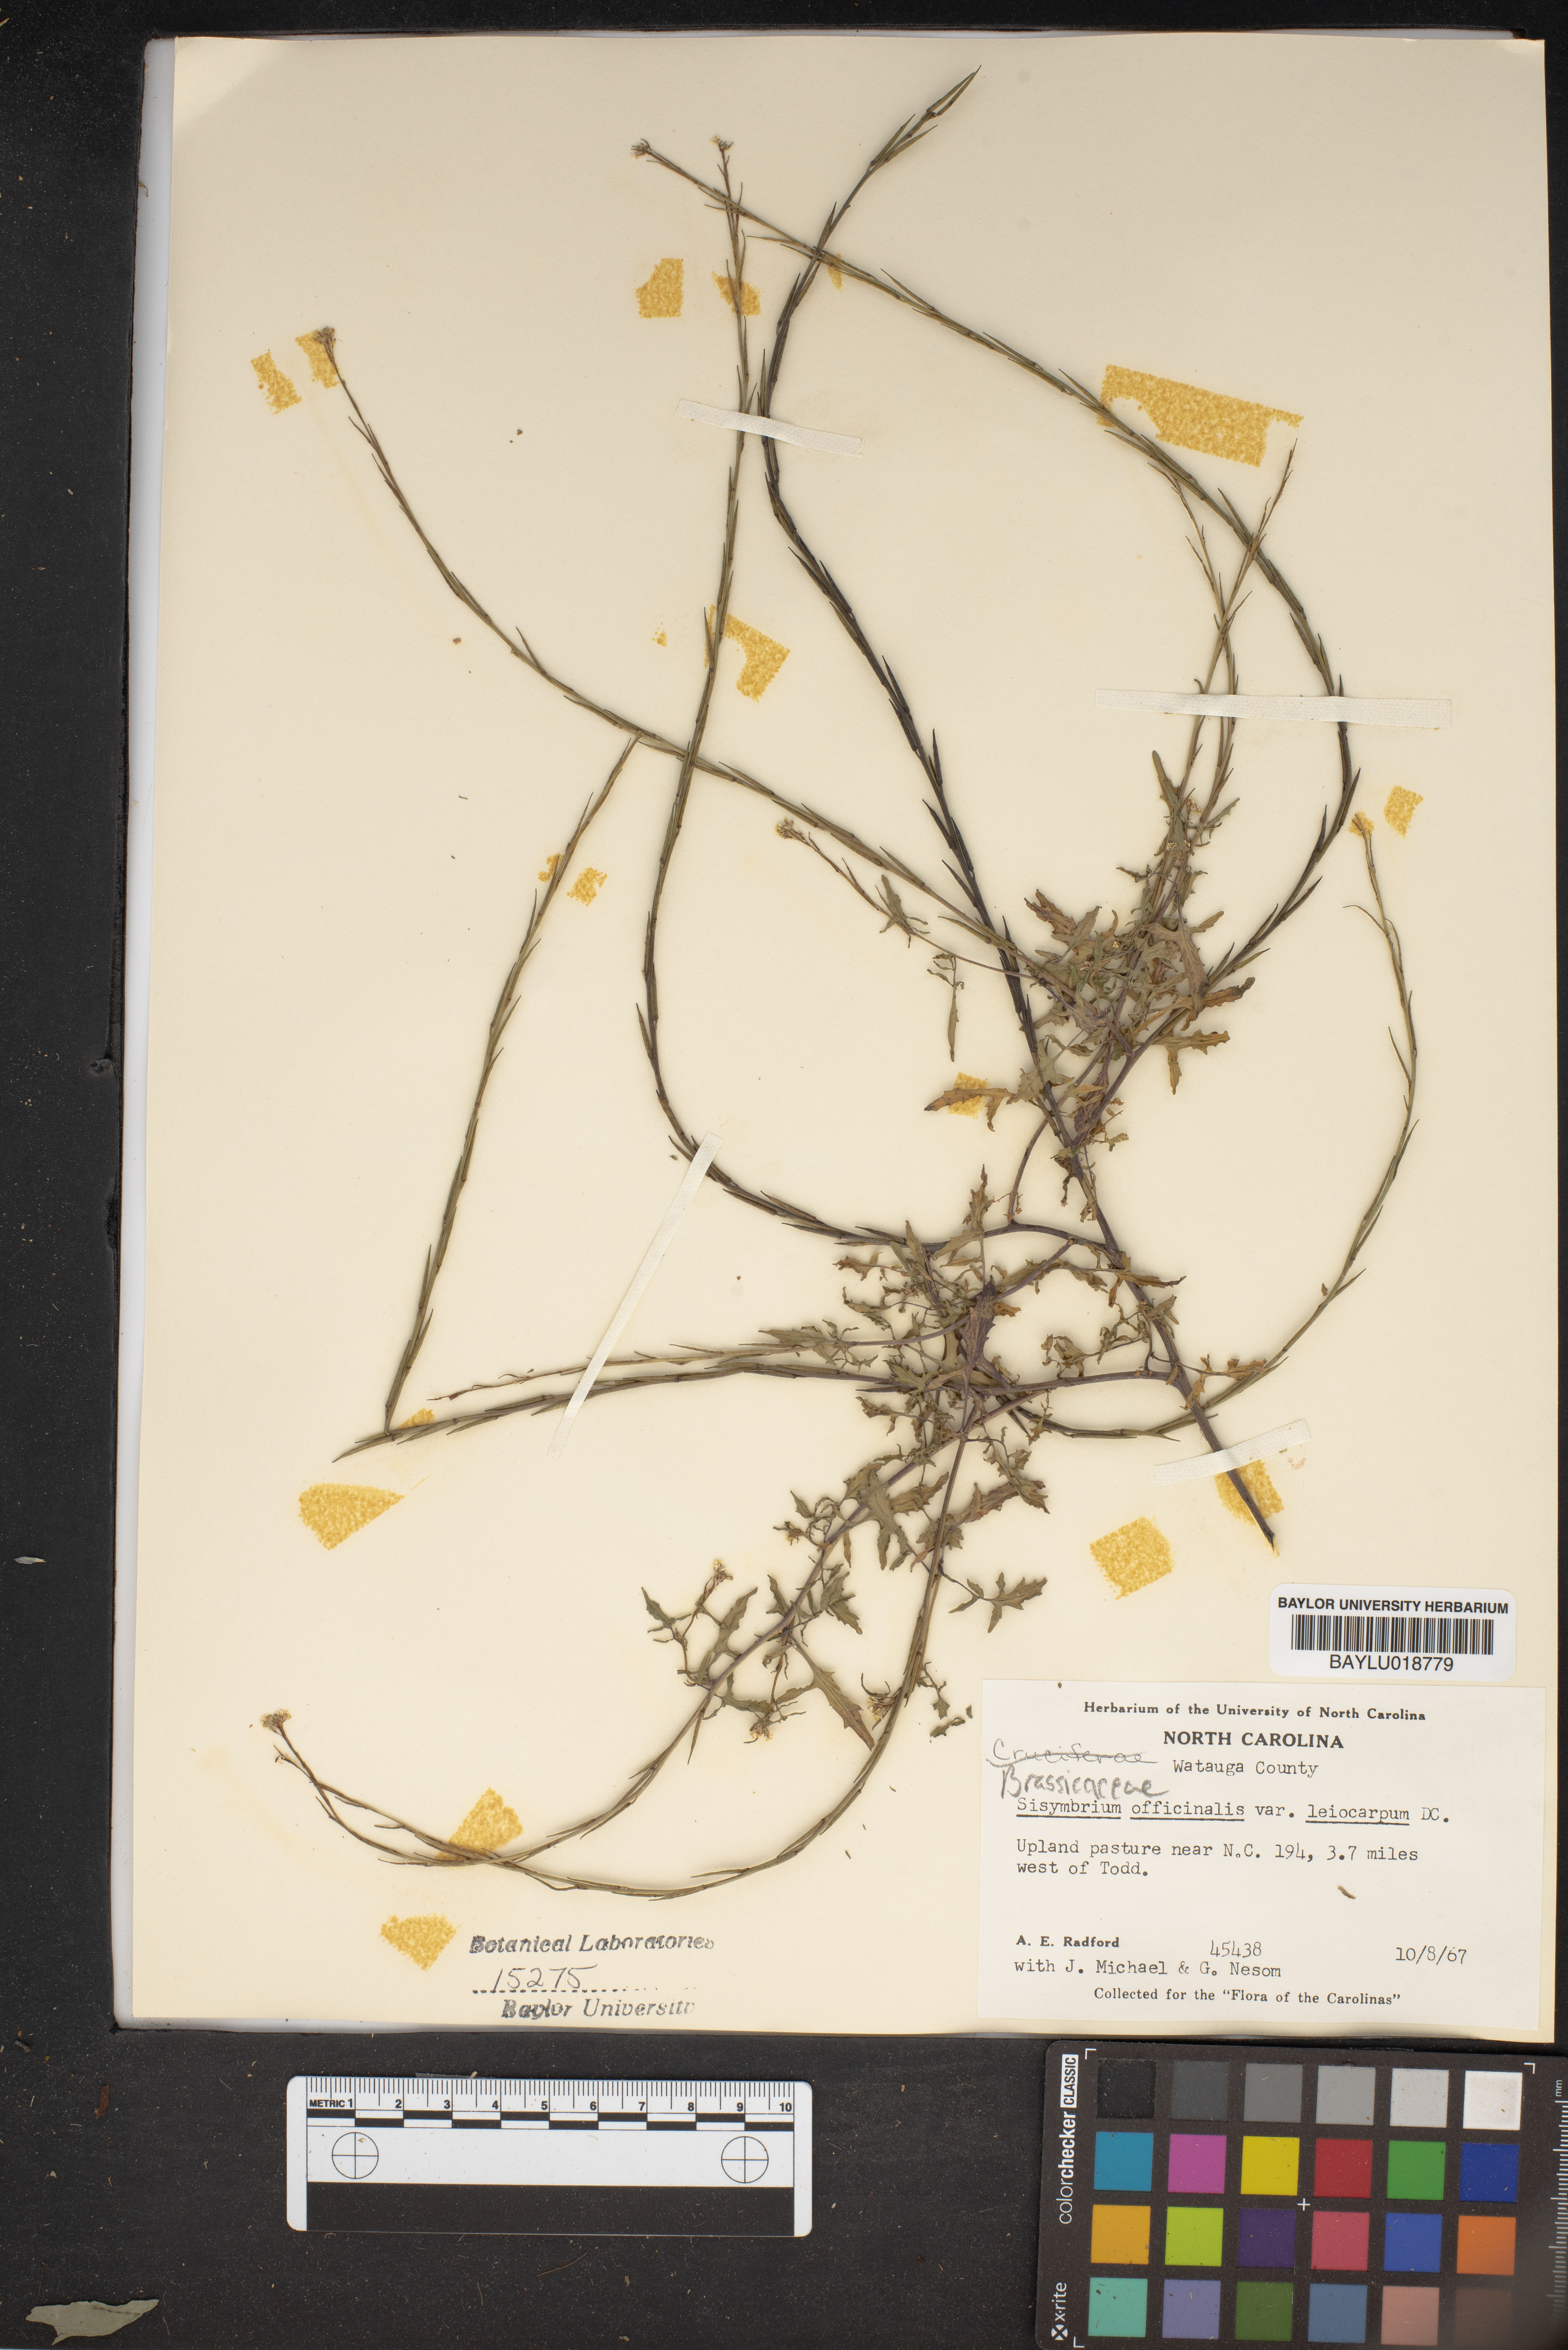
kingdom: Plantae
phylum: Tracheophyta
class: Magnoliopsida
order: Brassicales
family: Brassicaceae
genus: Sisymbrium
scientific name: Sisymbrium
